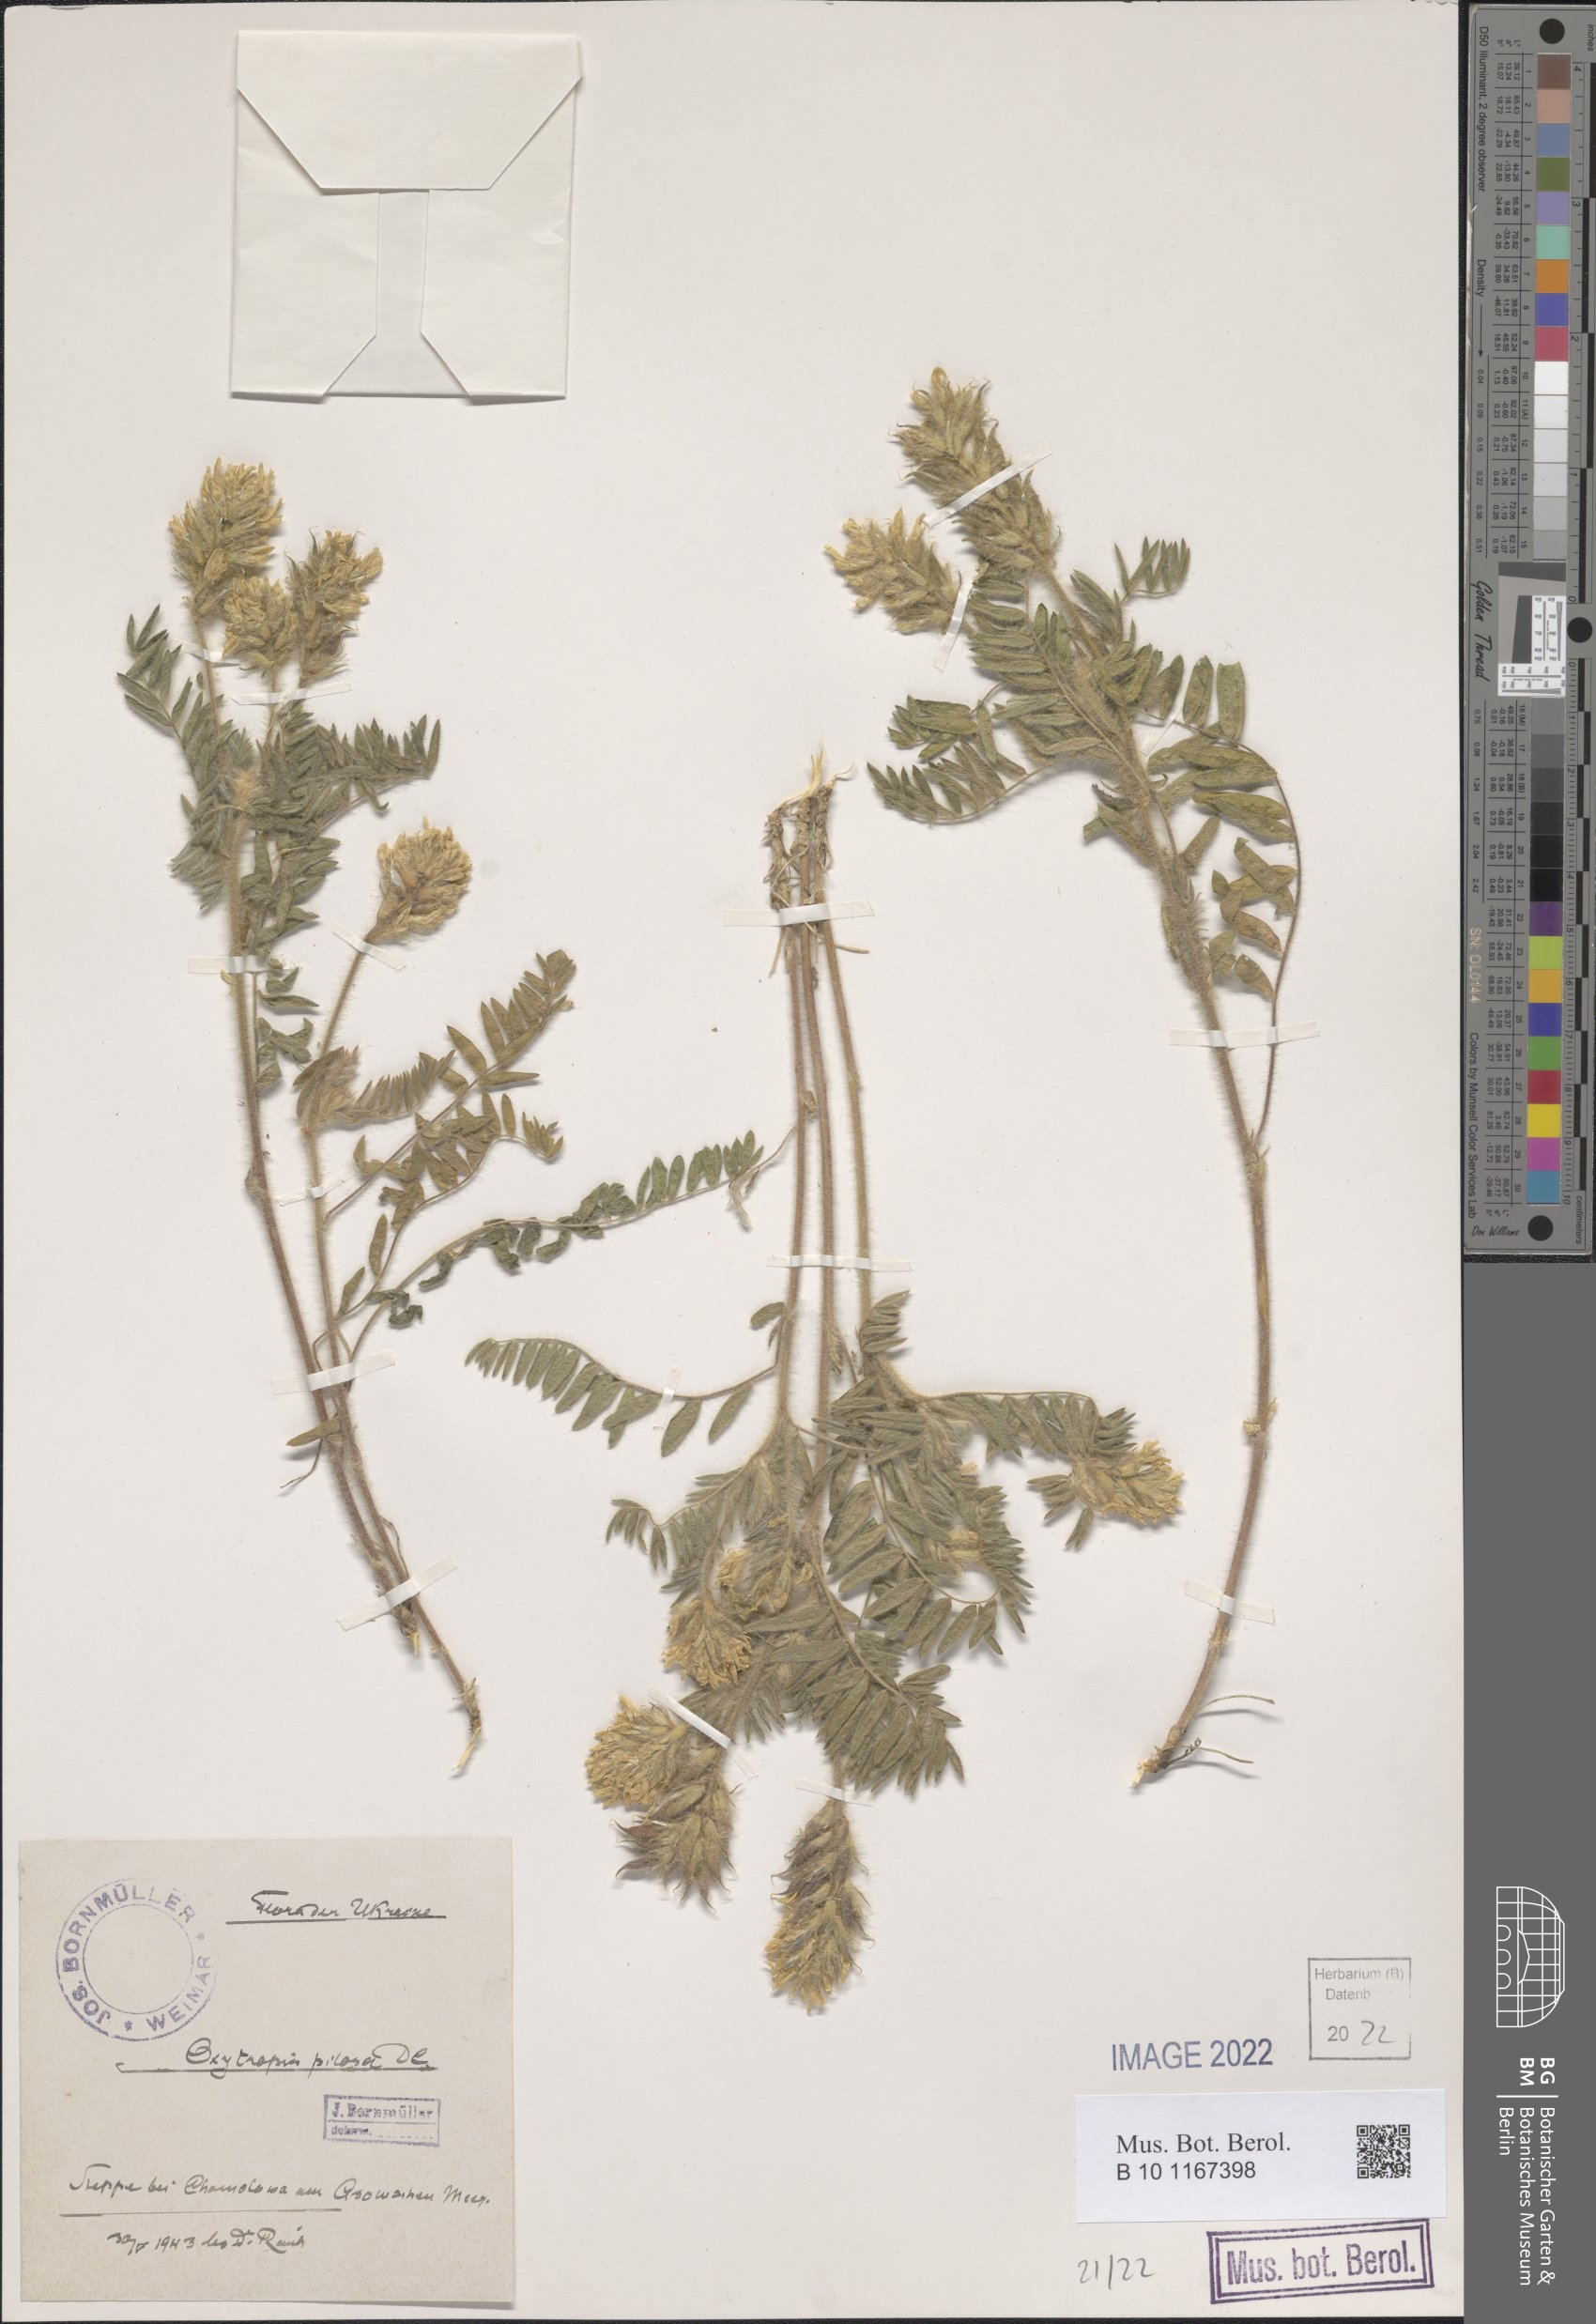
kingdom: Plantae
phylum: Tracheophyta
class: Magnoliopsida
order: Fabales
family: Fabaceae
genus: Oxytropis
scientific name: Oxytropis pilosa
